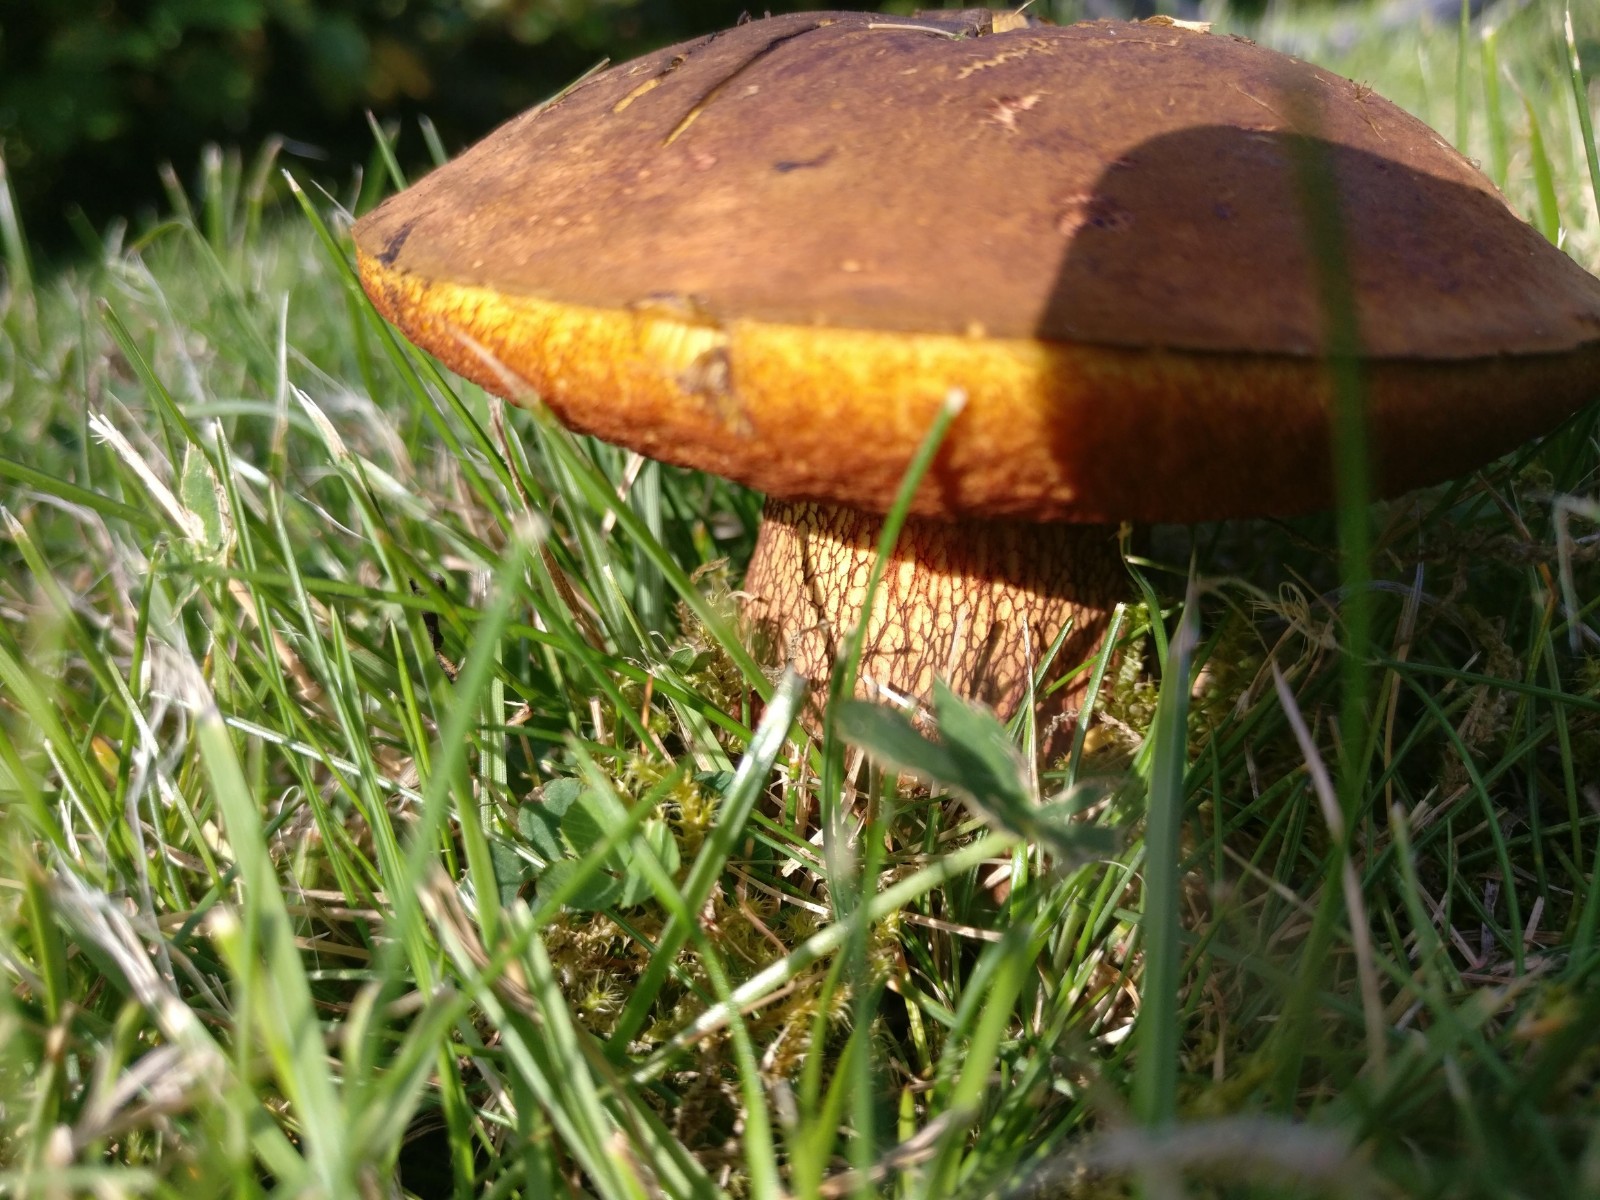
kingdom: Fungi
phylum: Basidiomycota
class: Agaricomycetes
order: Boletales
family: Boletaceae
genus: Suillellus
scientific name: Suillellus luridus
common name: netstokket indigorørhat
